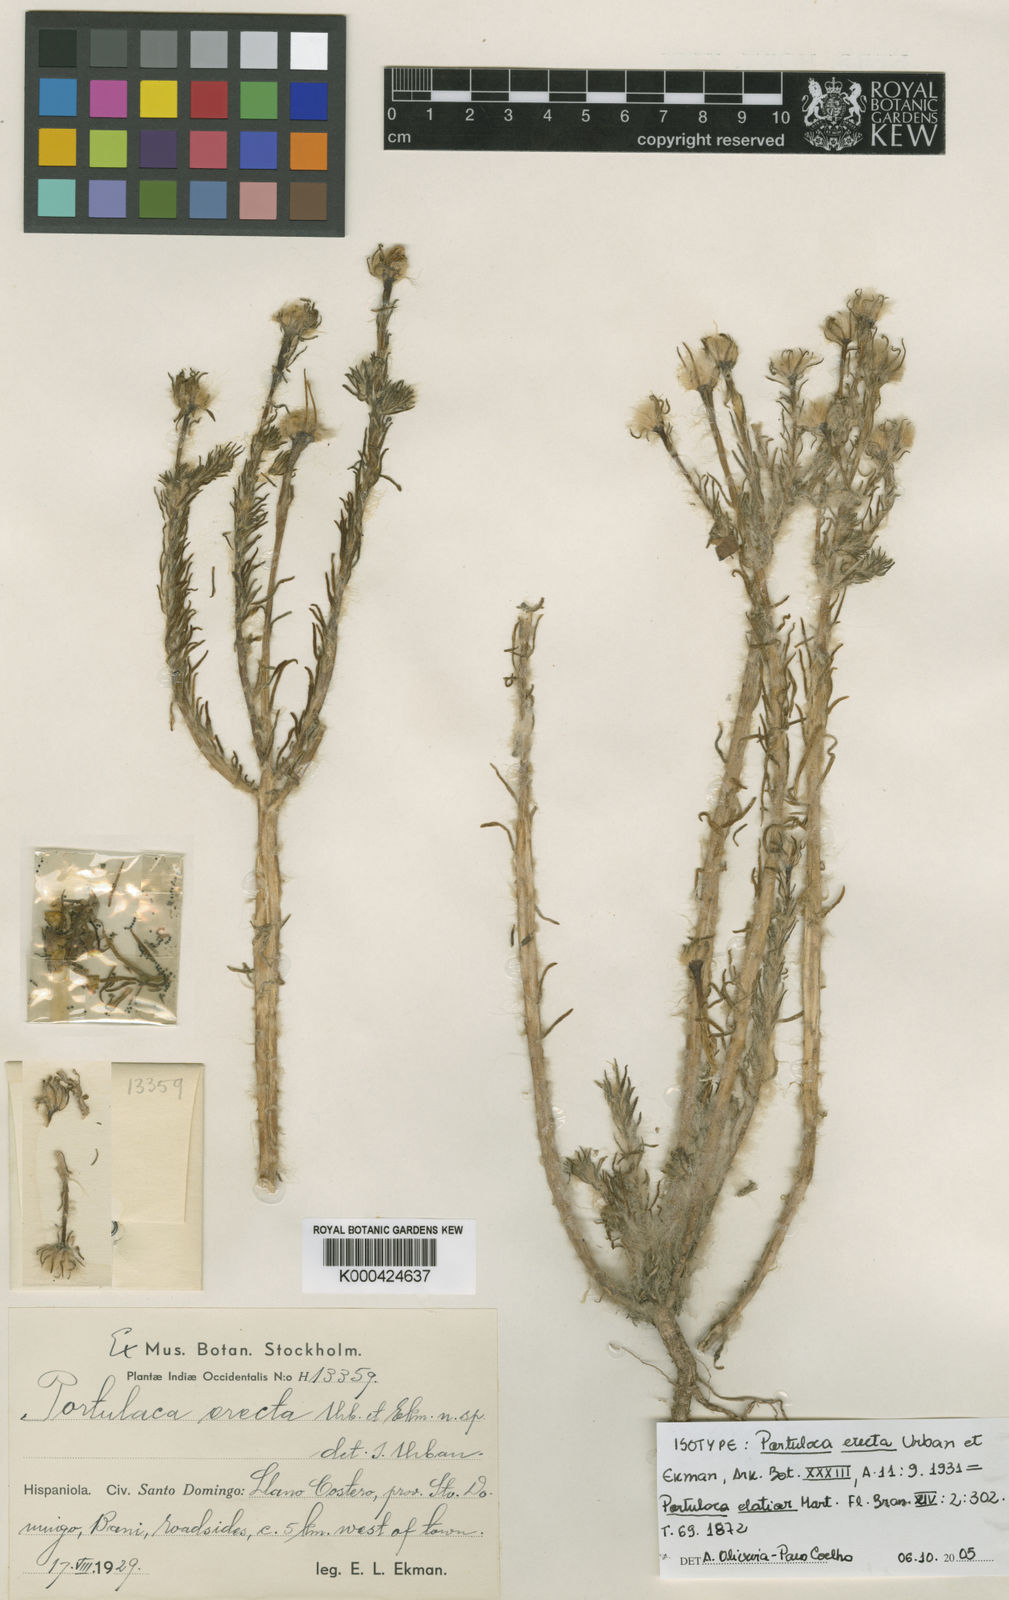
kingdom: Plantae
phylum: Tracheophyta
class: Magnoliopsida
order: Caryophyllales
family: Portulacaceae
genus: Portulaca
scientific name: Portulaca elatior
